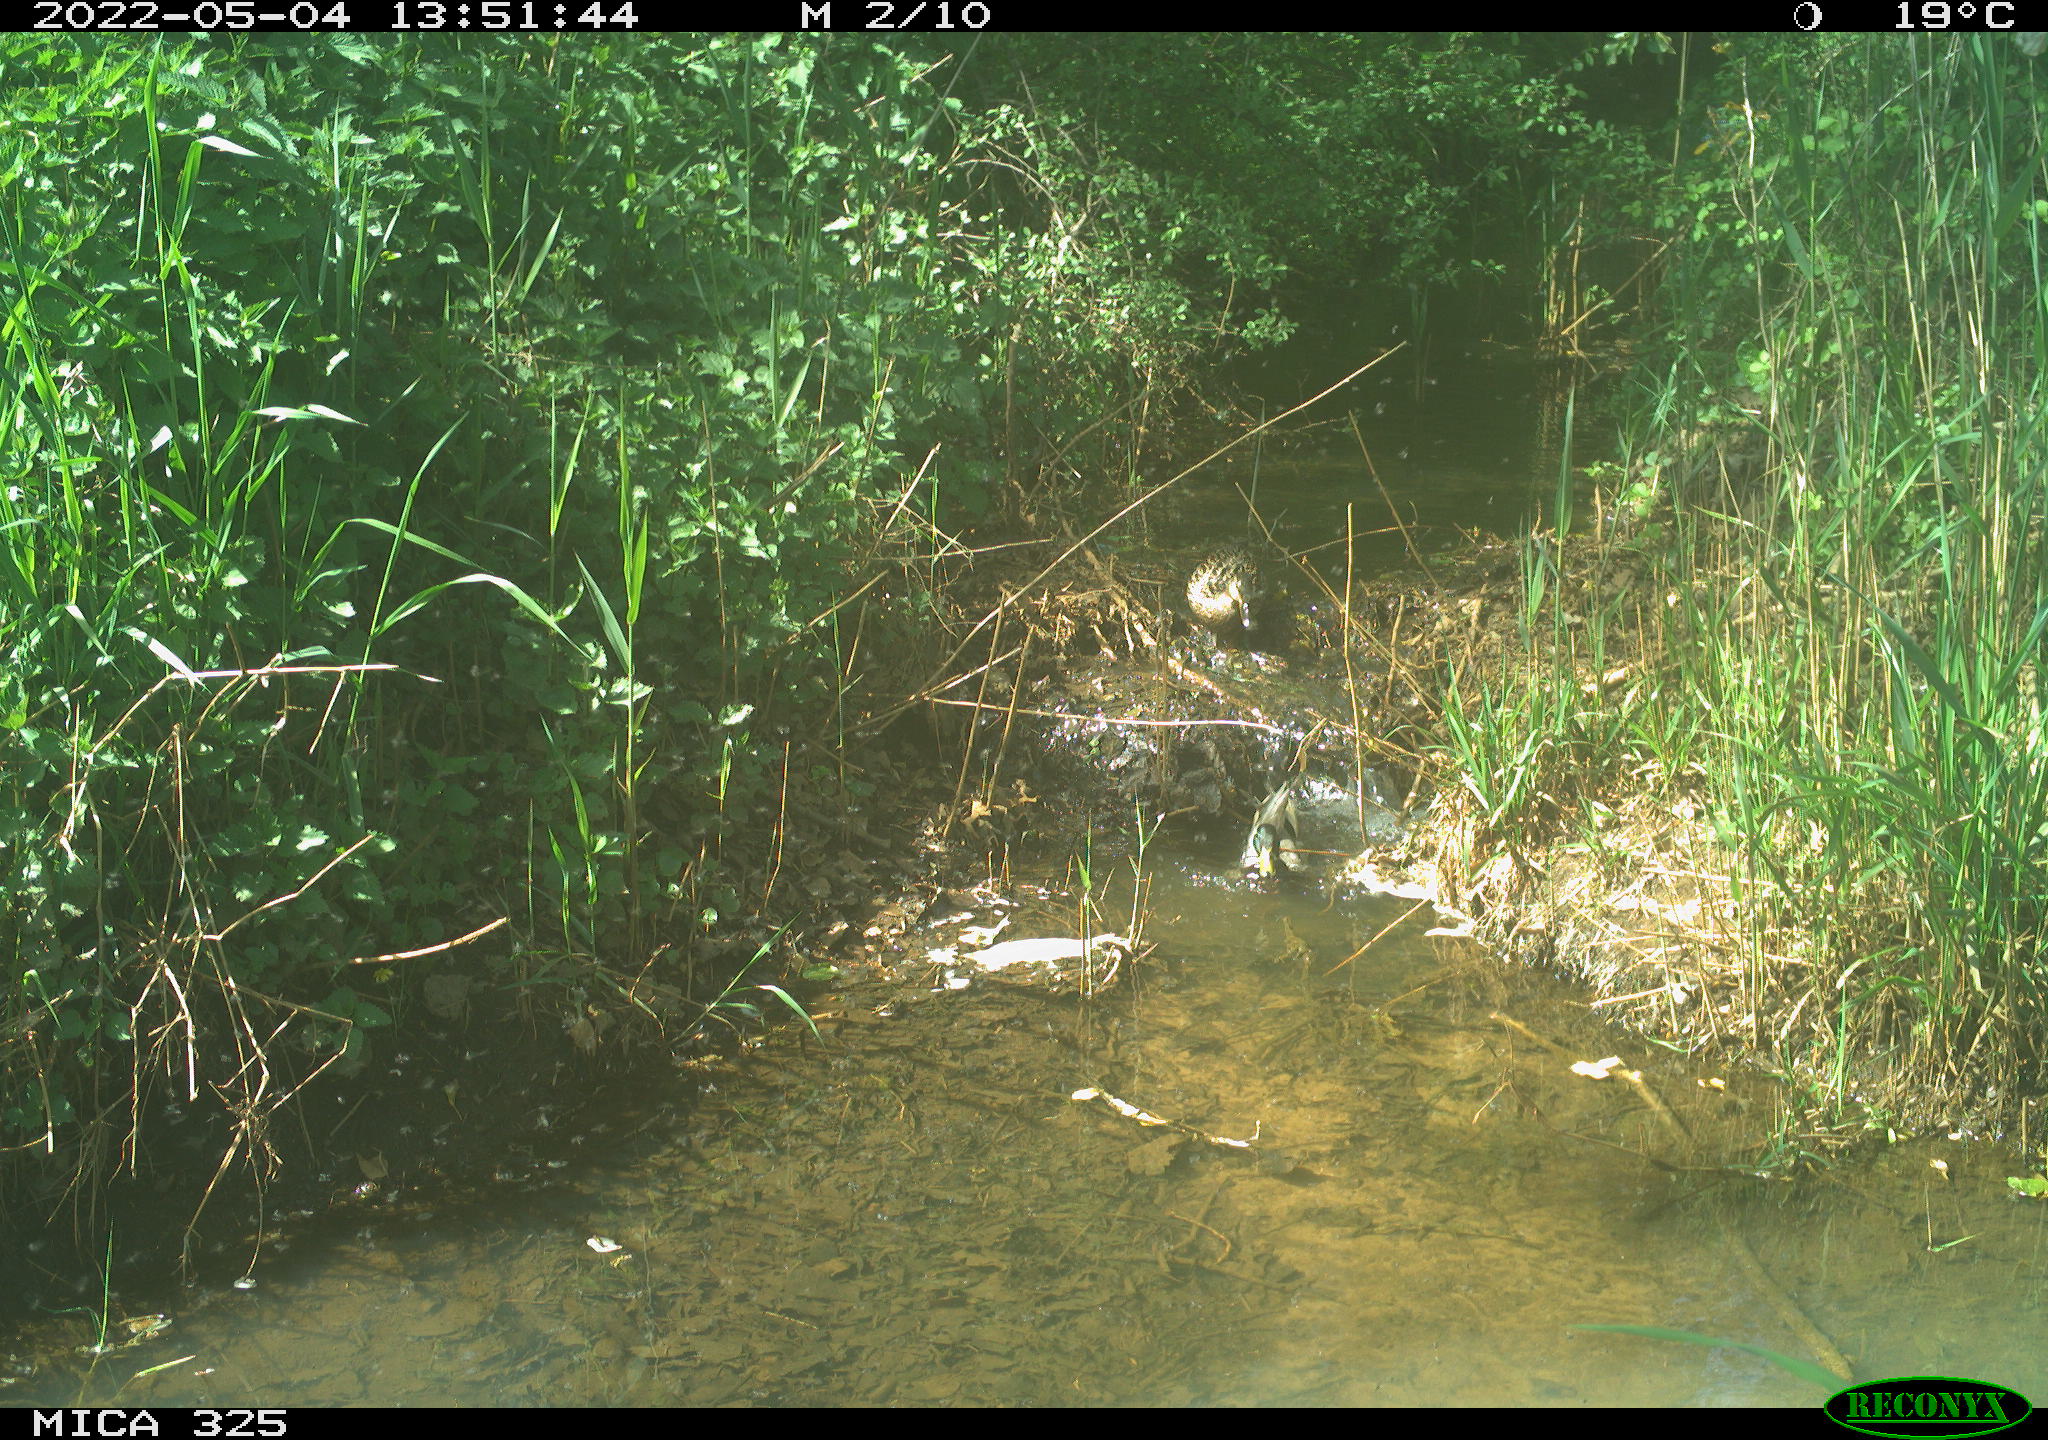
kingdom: Animalia
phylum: Chordata
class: Aves
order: Anseriformes
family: Anatidae
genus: Anas
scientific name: Anas platyrhynchos
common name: Mallard
